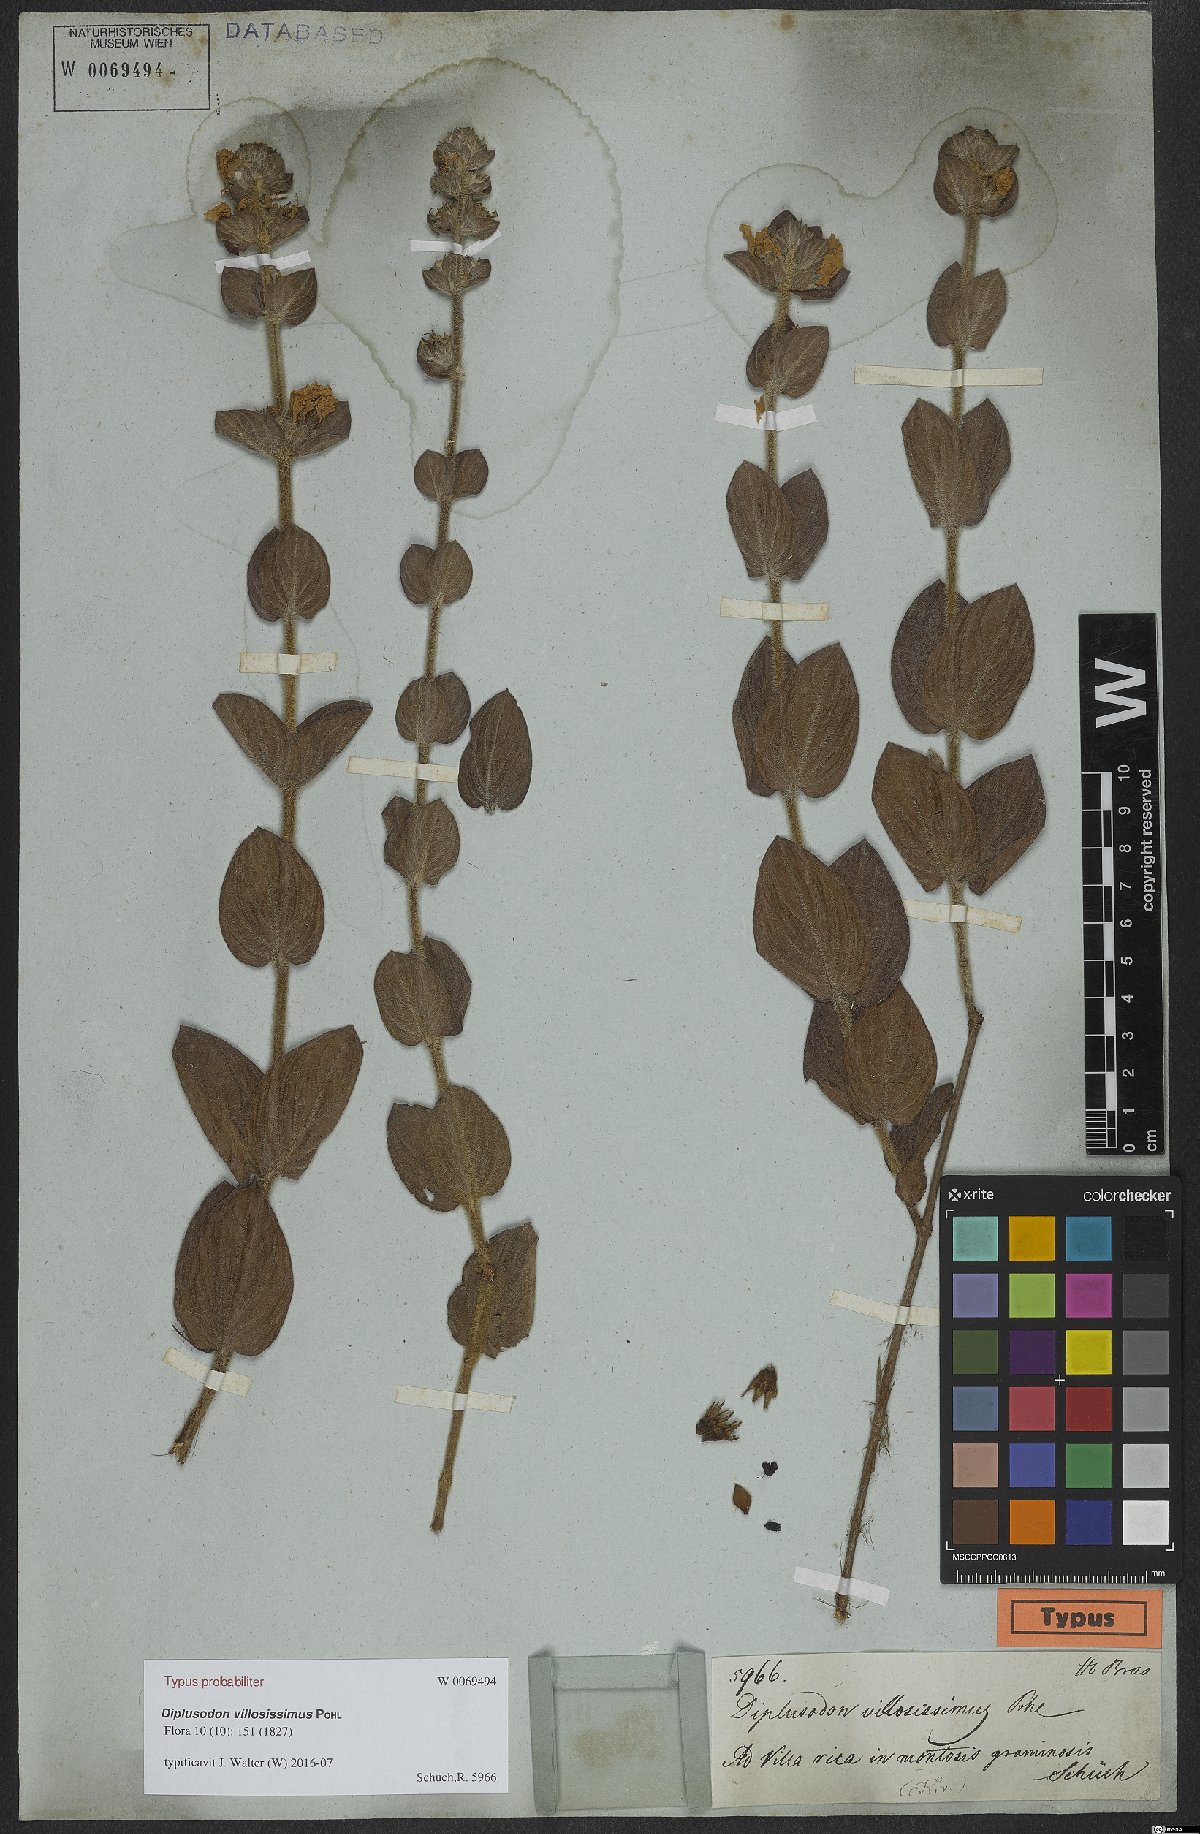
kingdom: Plantae
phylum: Tracheophyta
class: Magnoliopsida
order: Myrtales
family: Lythraceae
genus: Diplusodon
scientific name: Diplusodon villosissimus
